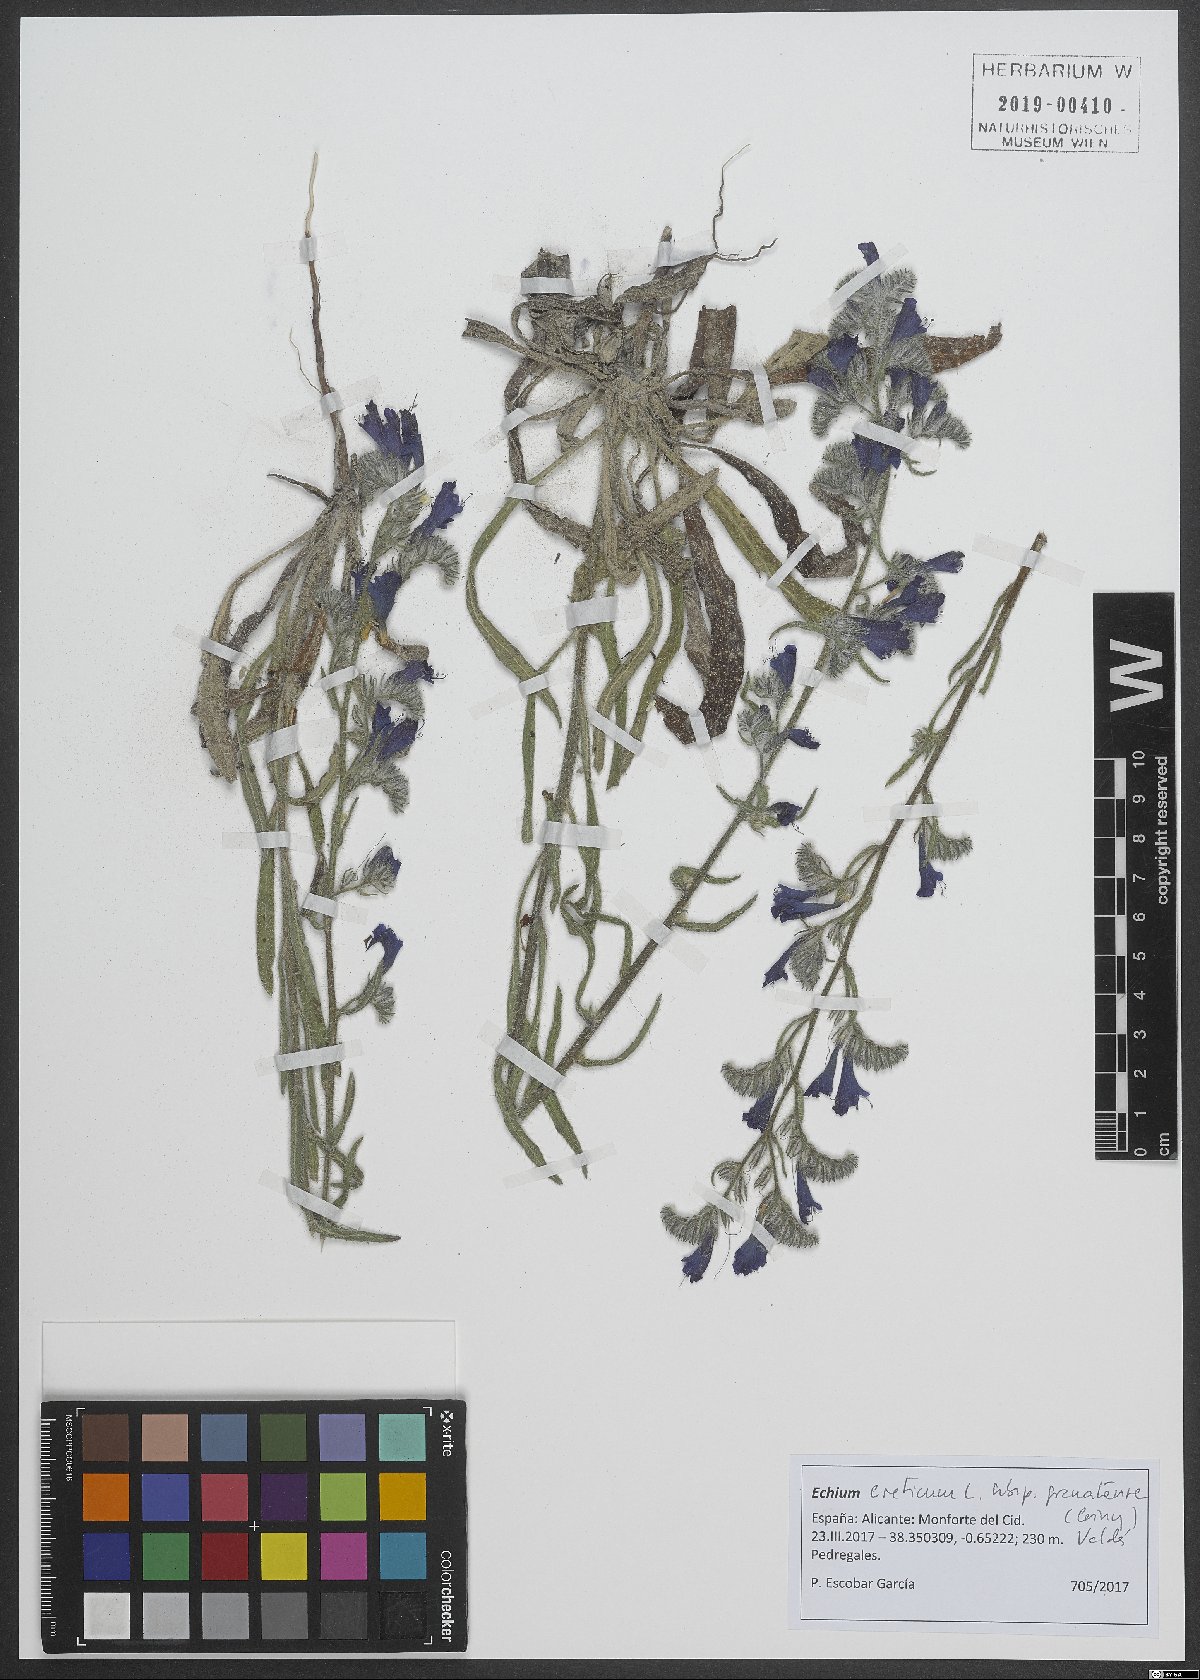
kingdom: Plantae
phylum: Tracheophyta
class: Magnoliopsida
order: Boraginales
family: Boraginaceae
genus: Echium
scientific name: Echium creticum
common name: Cretan viper's bugloss
